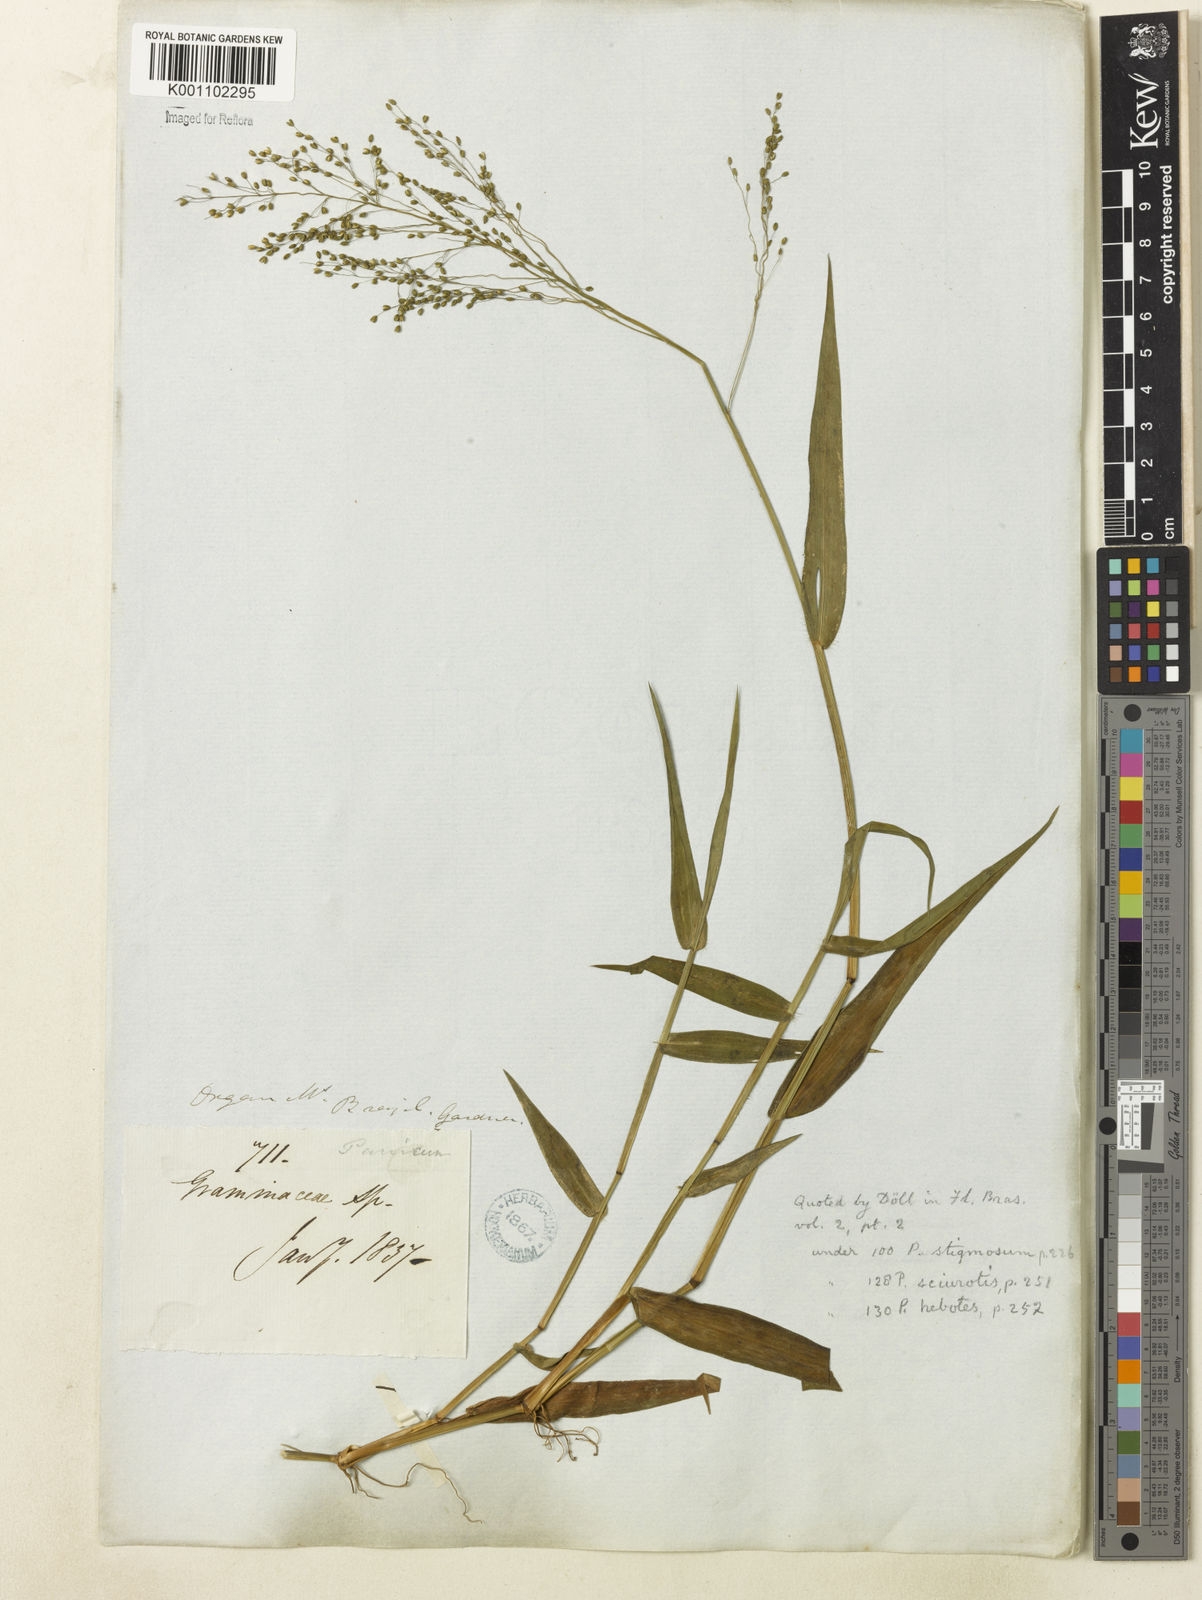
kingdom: Plantae
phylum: Tracheophyta
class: Liliopsida
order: Poales
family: Poaceae
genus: Dichanthelium
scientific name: Dichanthelium stigmosum
